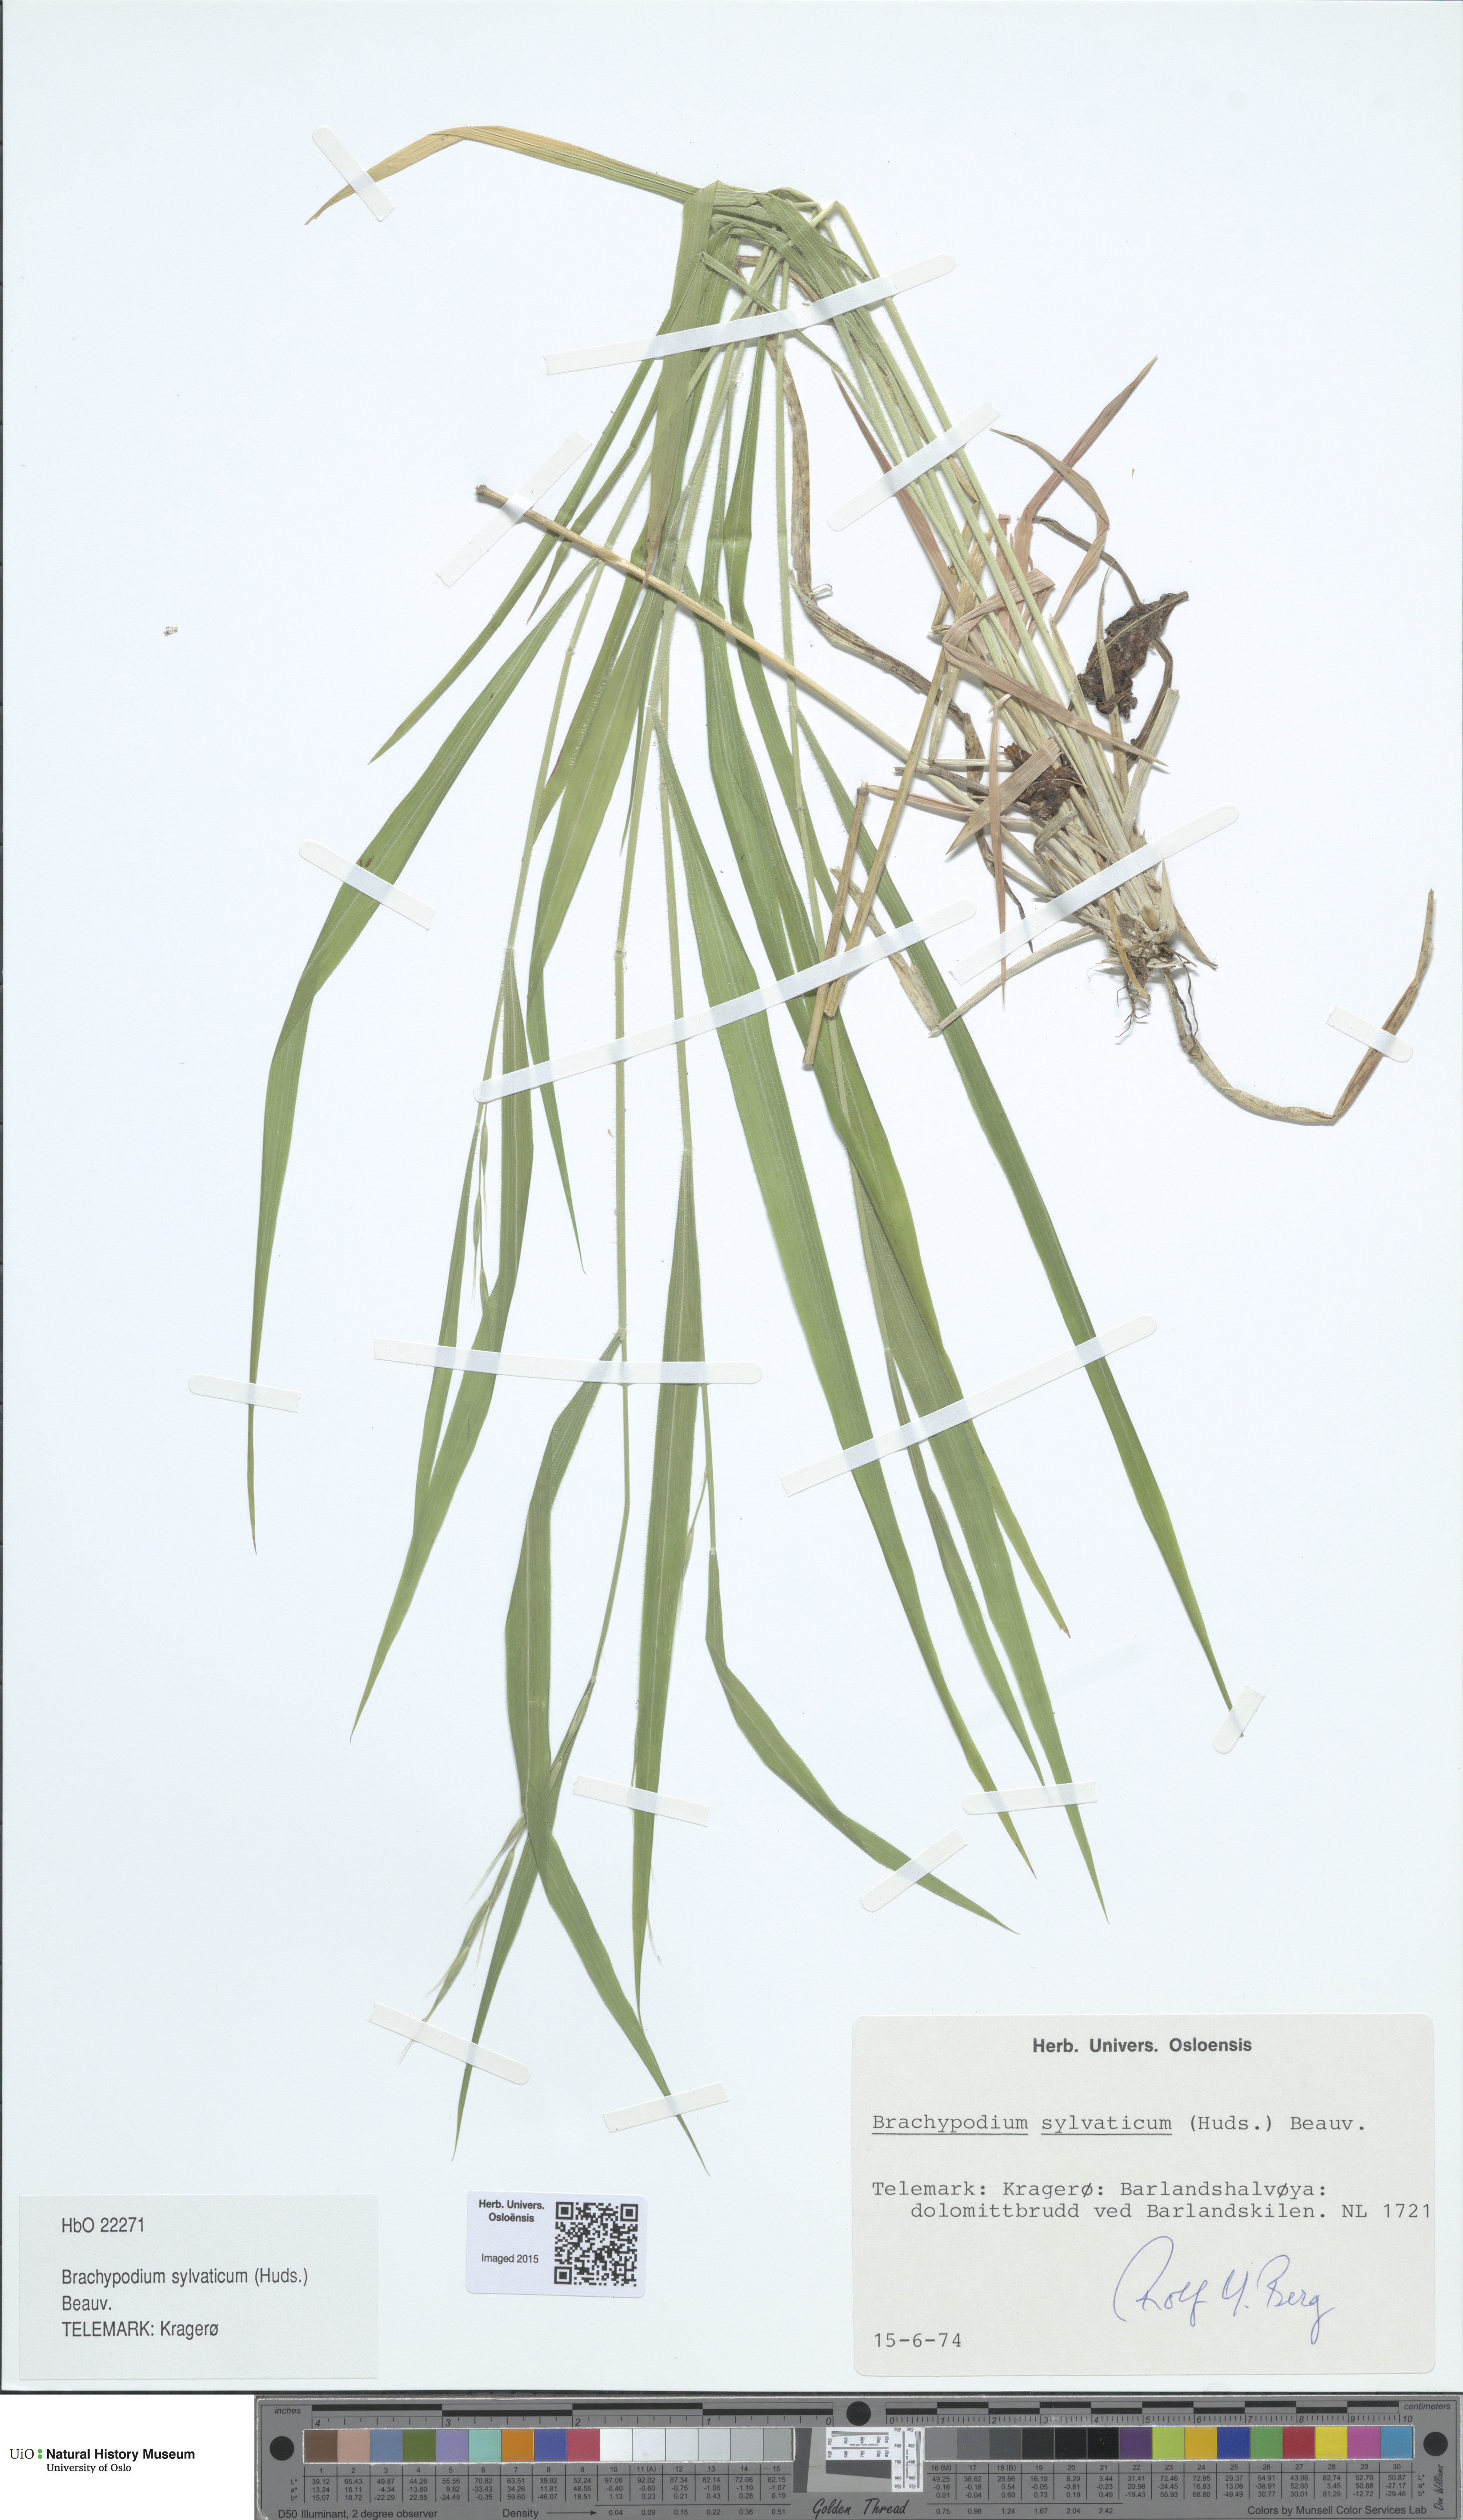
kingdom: Plantae
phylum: Tracheophyta
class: Liliopsida
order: Poales
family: Poaceae
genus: Brachypodium
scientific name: Brachypodium sylvaticum
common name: False-brome
